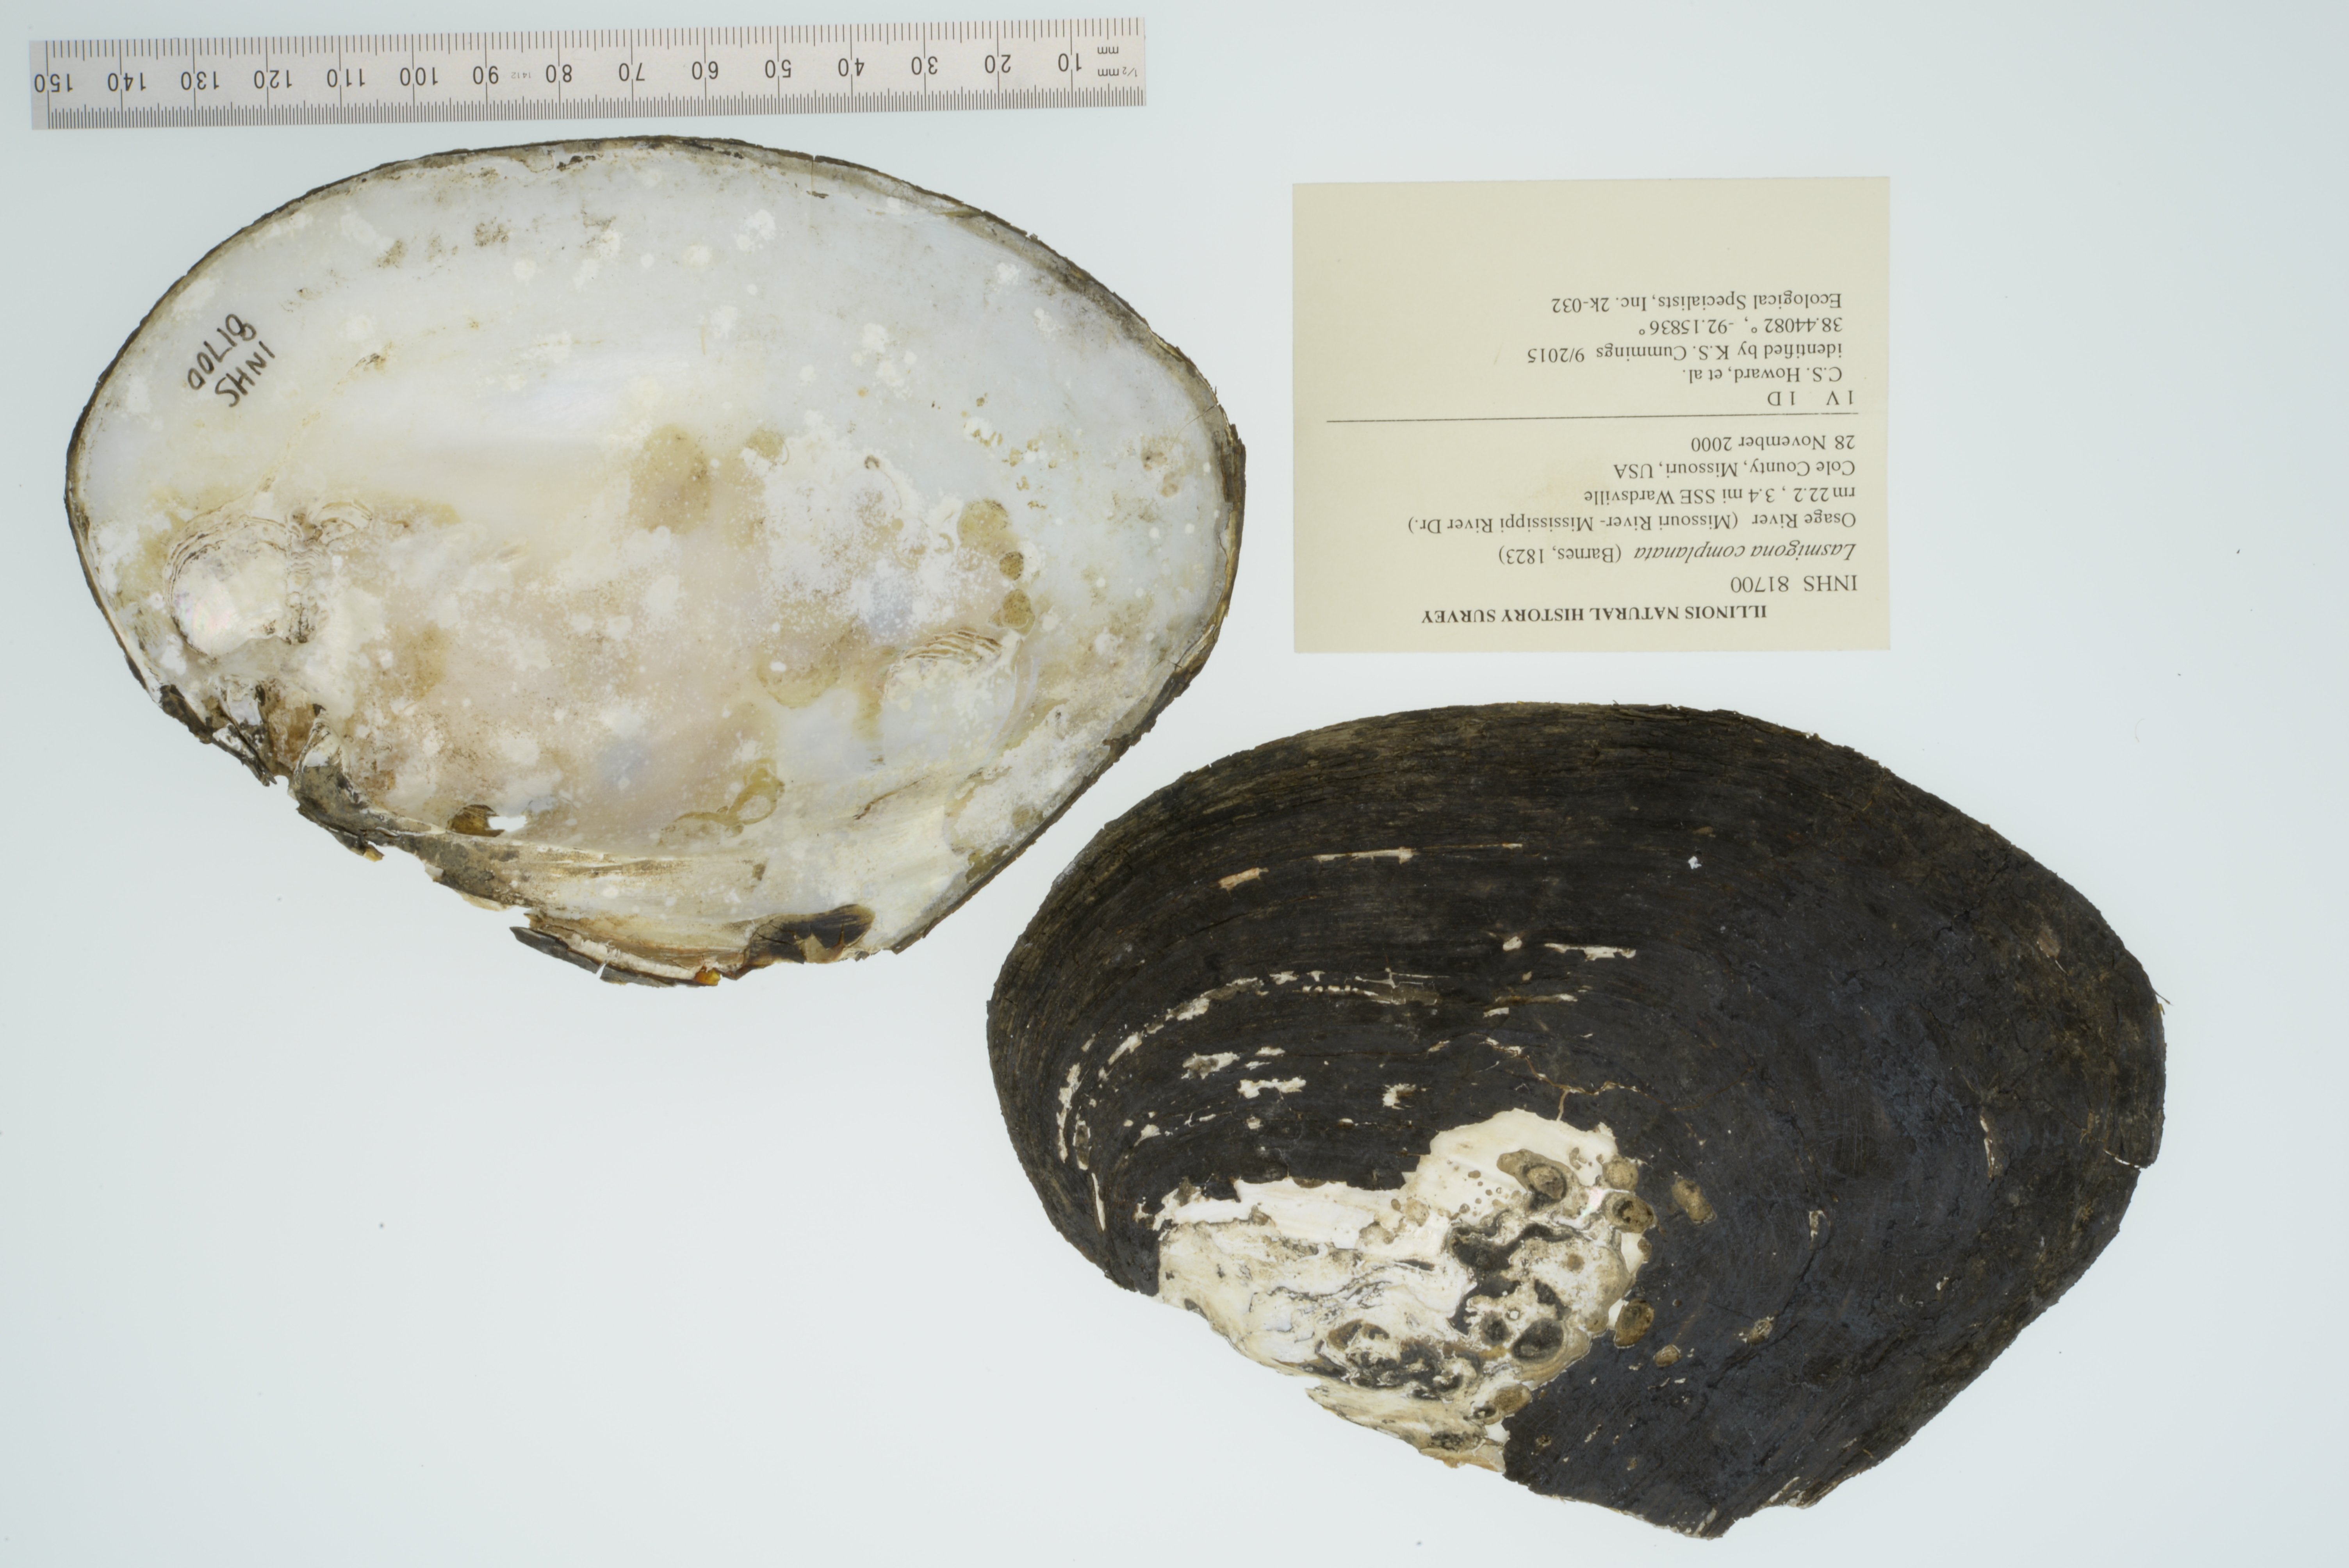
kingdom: Animalia
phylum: Mollusca
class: Bivalvia
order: Unionida
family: Unionidae
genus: Lasmigona
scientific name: Lasmigona complanata
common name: White heelsplitter
